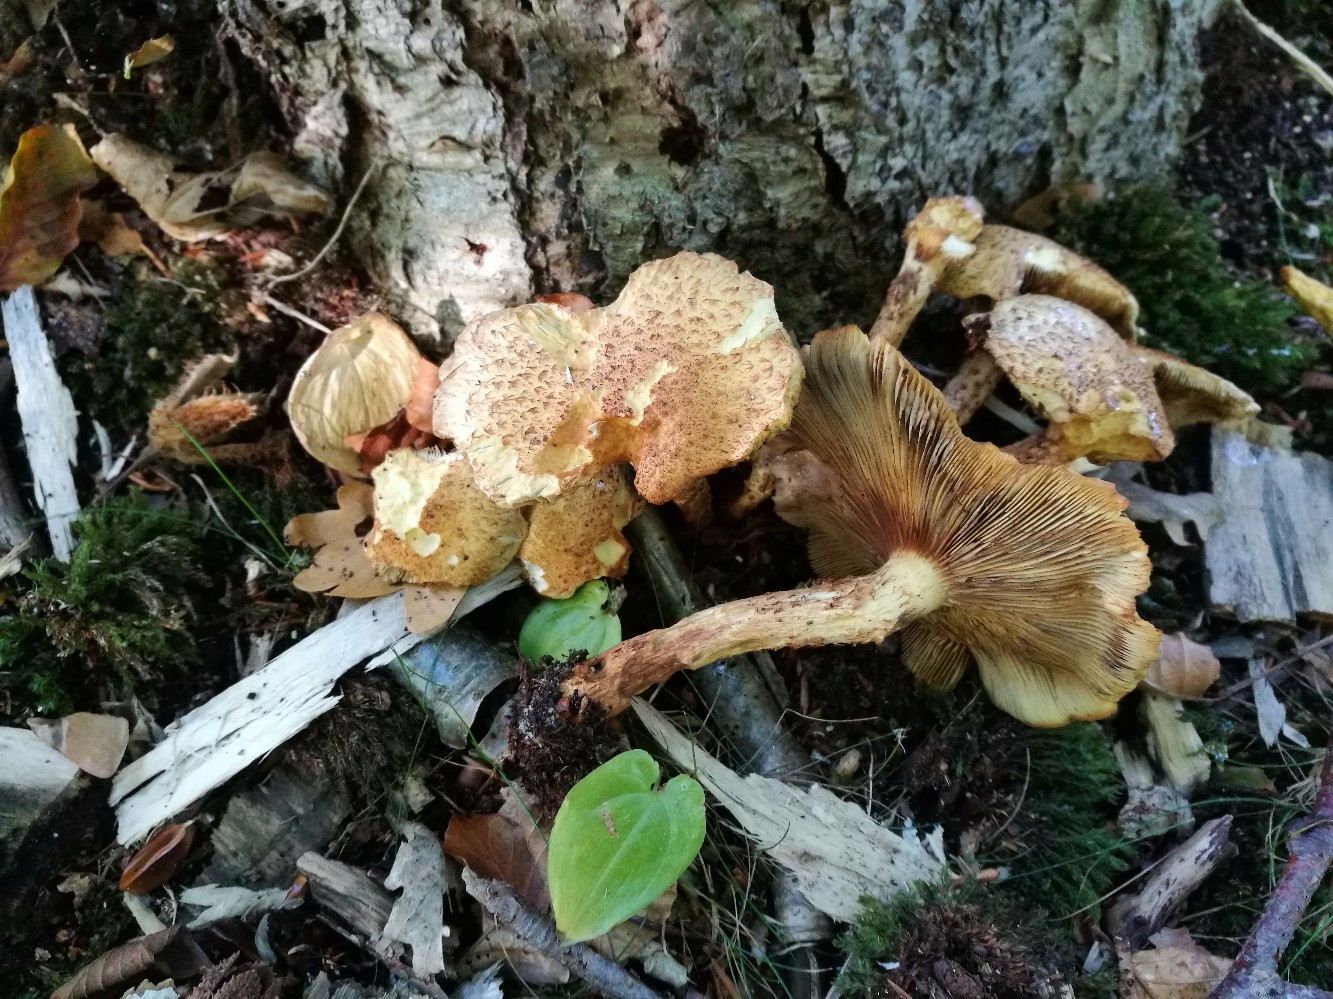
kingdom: Fungi
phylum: Basidiomycota
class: Agaricomycetes
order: Agaricales
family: Strophariaceae
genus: Pholiota
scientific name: Pholiota squarrosa
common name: krumskællet skælhat
